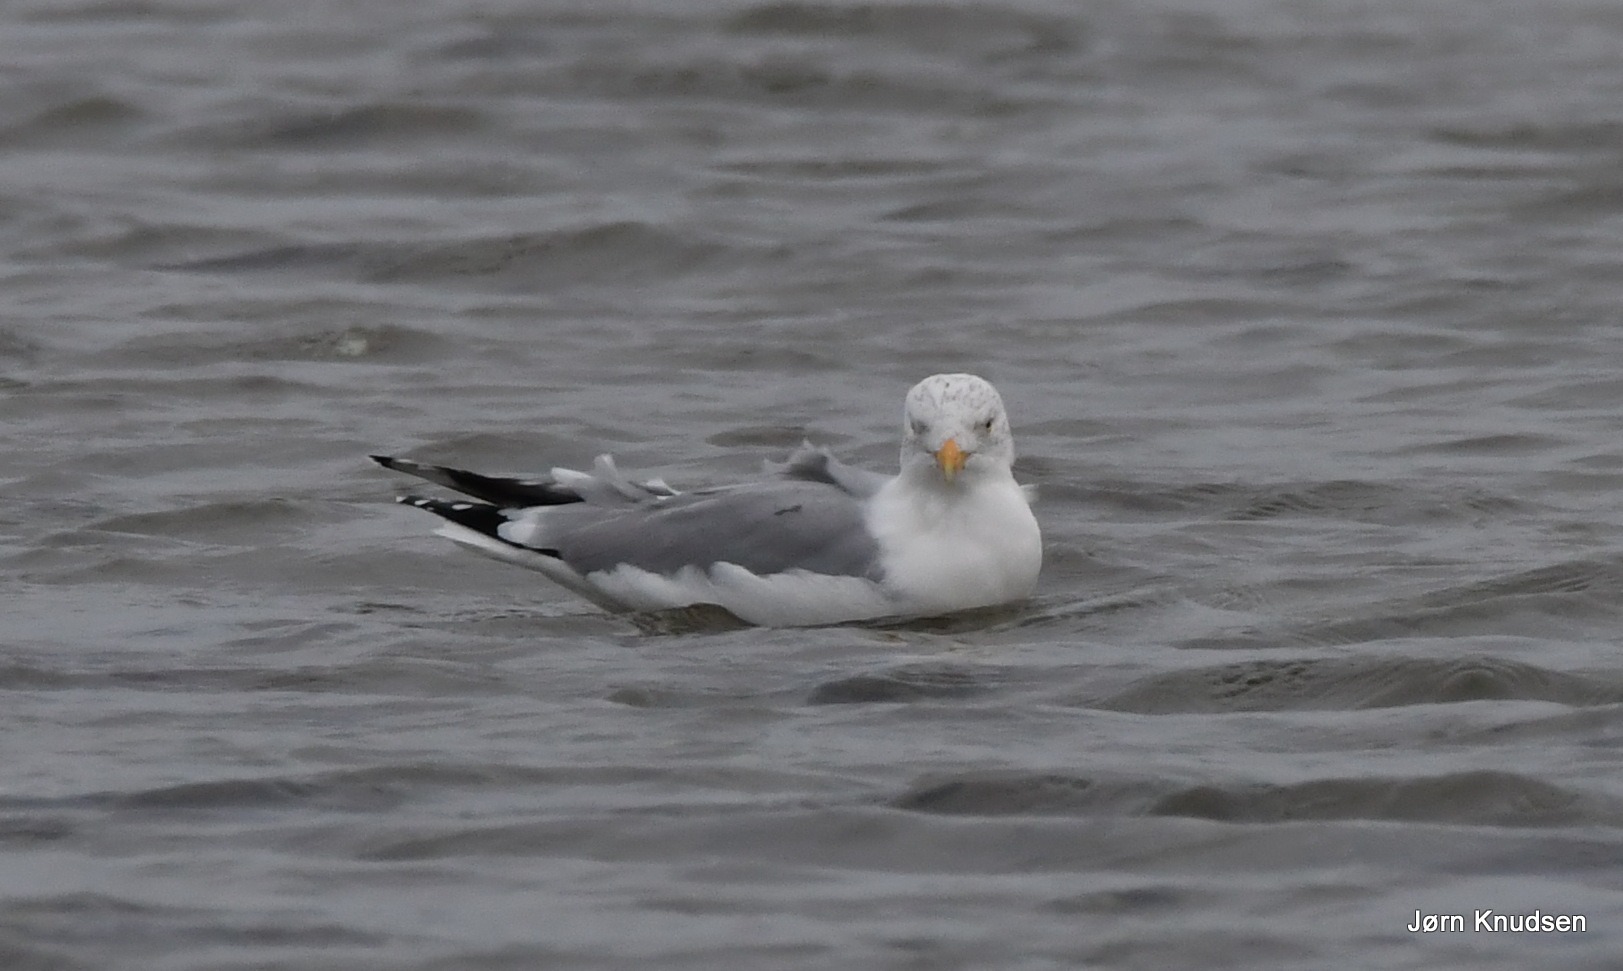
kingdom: Animalia
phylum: Chordata
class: Aves
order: Charadriiformes
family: Laridae
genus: Larus
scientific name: Larus argentatus
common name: Sølvmåge
